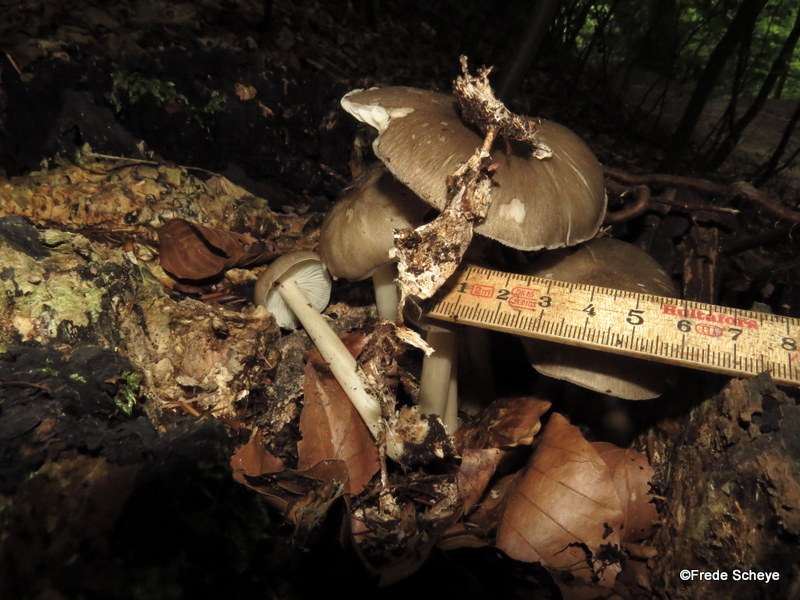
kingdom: Fungi
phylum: Basidiomycota
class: Agaricomycetes
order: Agaricales
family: Tricholomataceae
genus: Megacollybia
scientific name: Megacollybia platyphylla
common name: bredbladet væbnerhat
